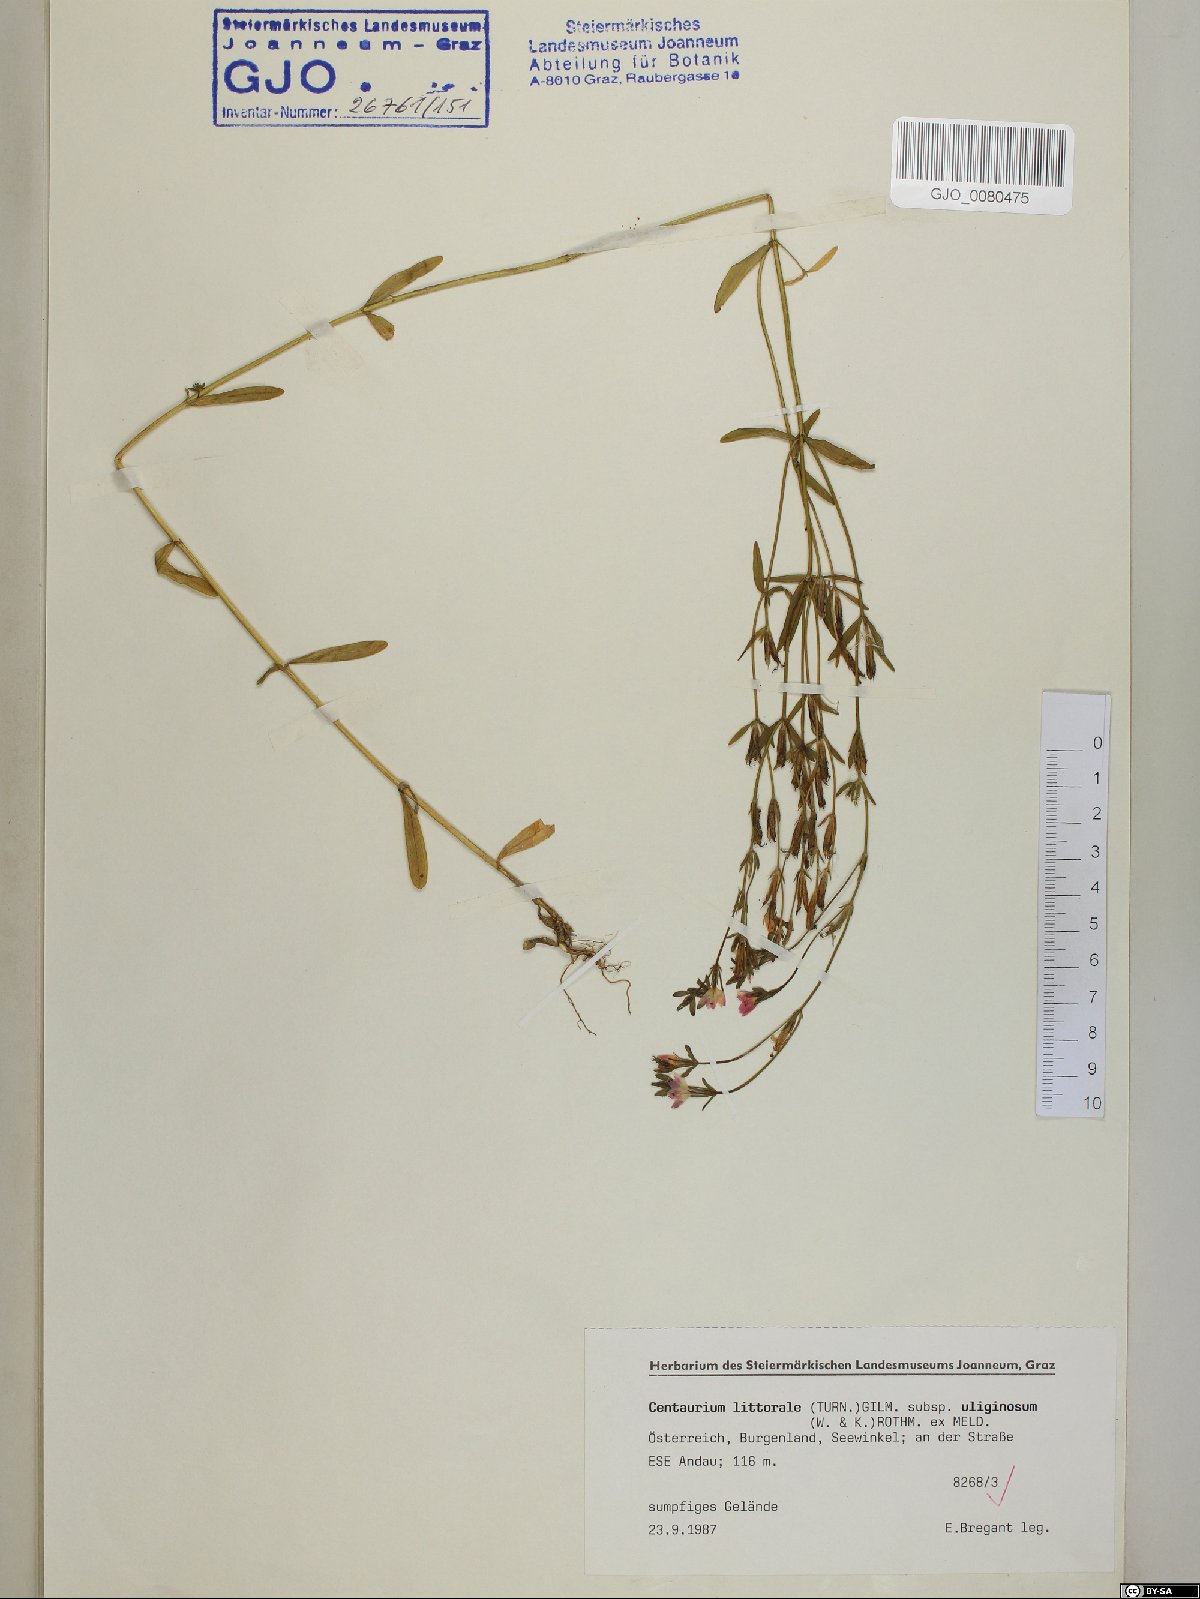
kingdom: Plantae
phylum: Tracheophyta
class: Magnoliopsida
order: Gentianales
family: Gentianaceae
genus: Centaurium
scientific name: Centaurium littorale
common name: Seaside centaury
